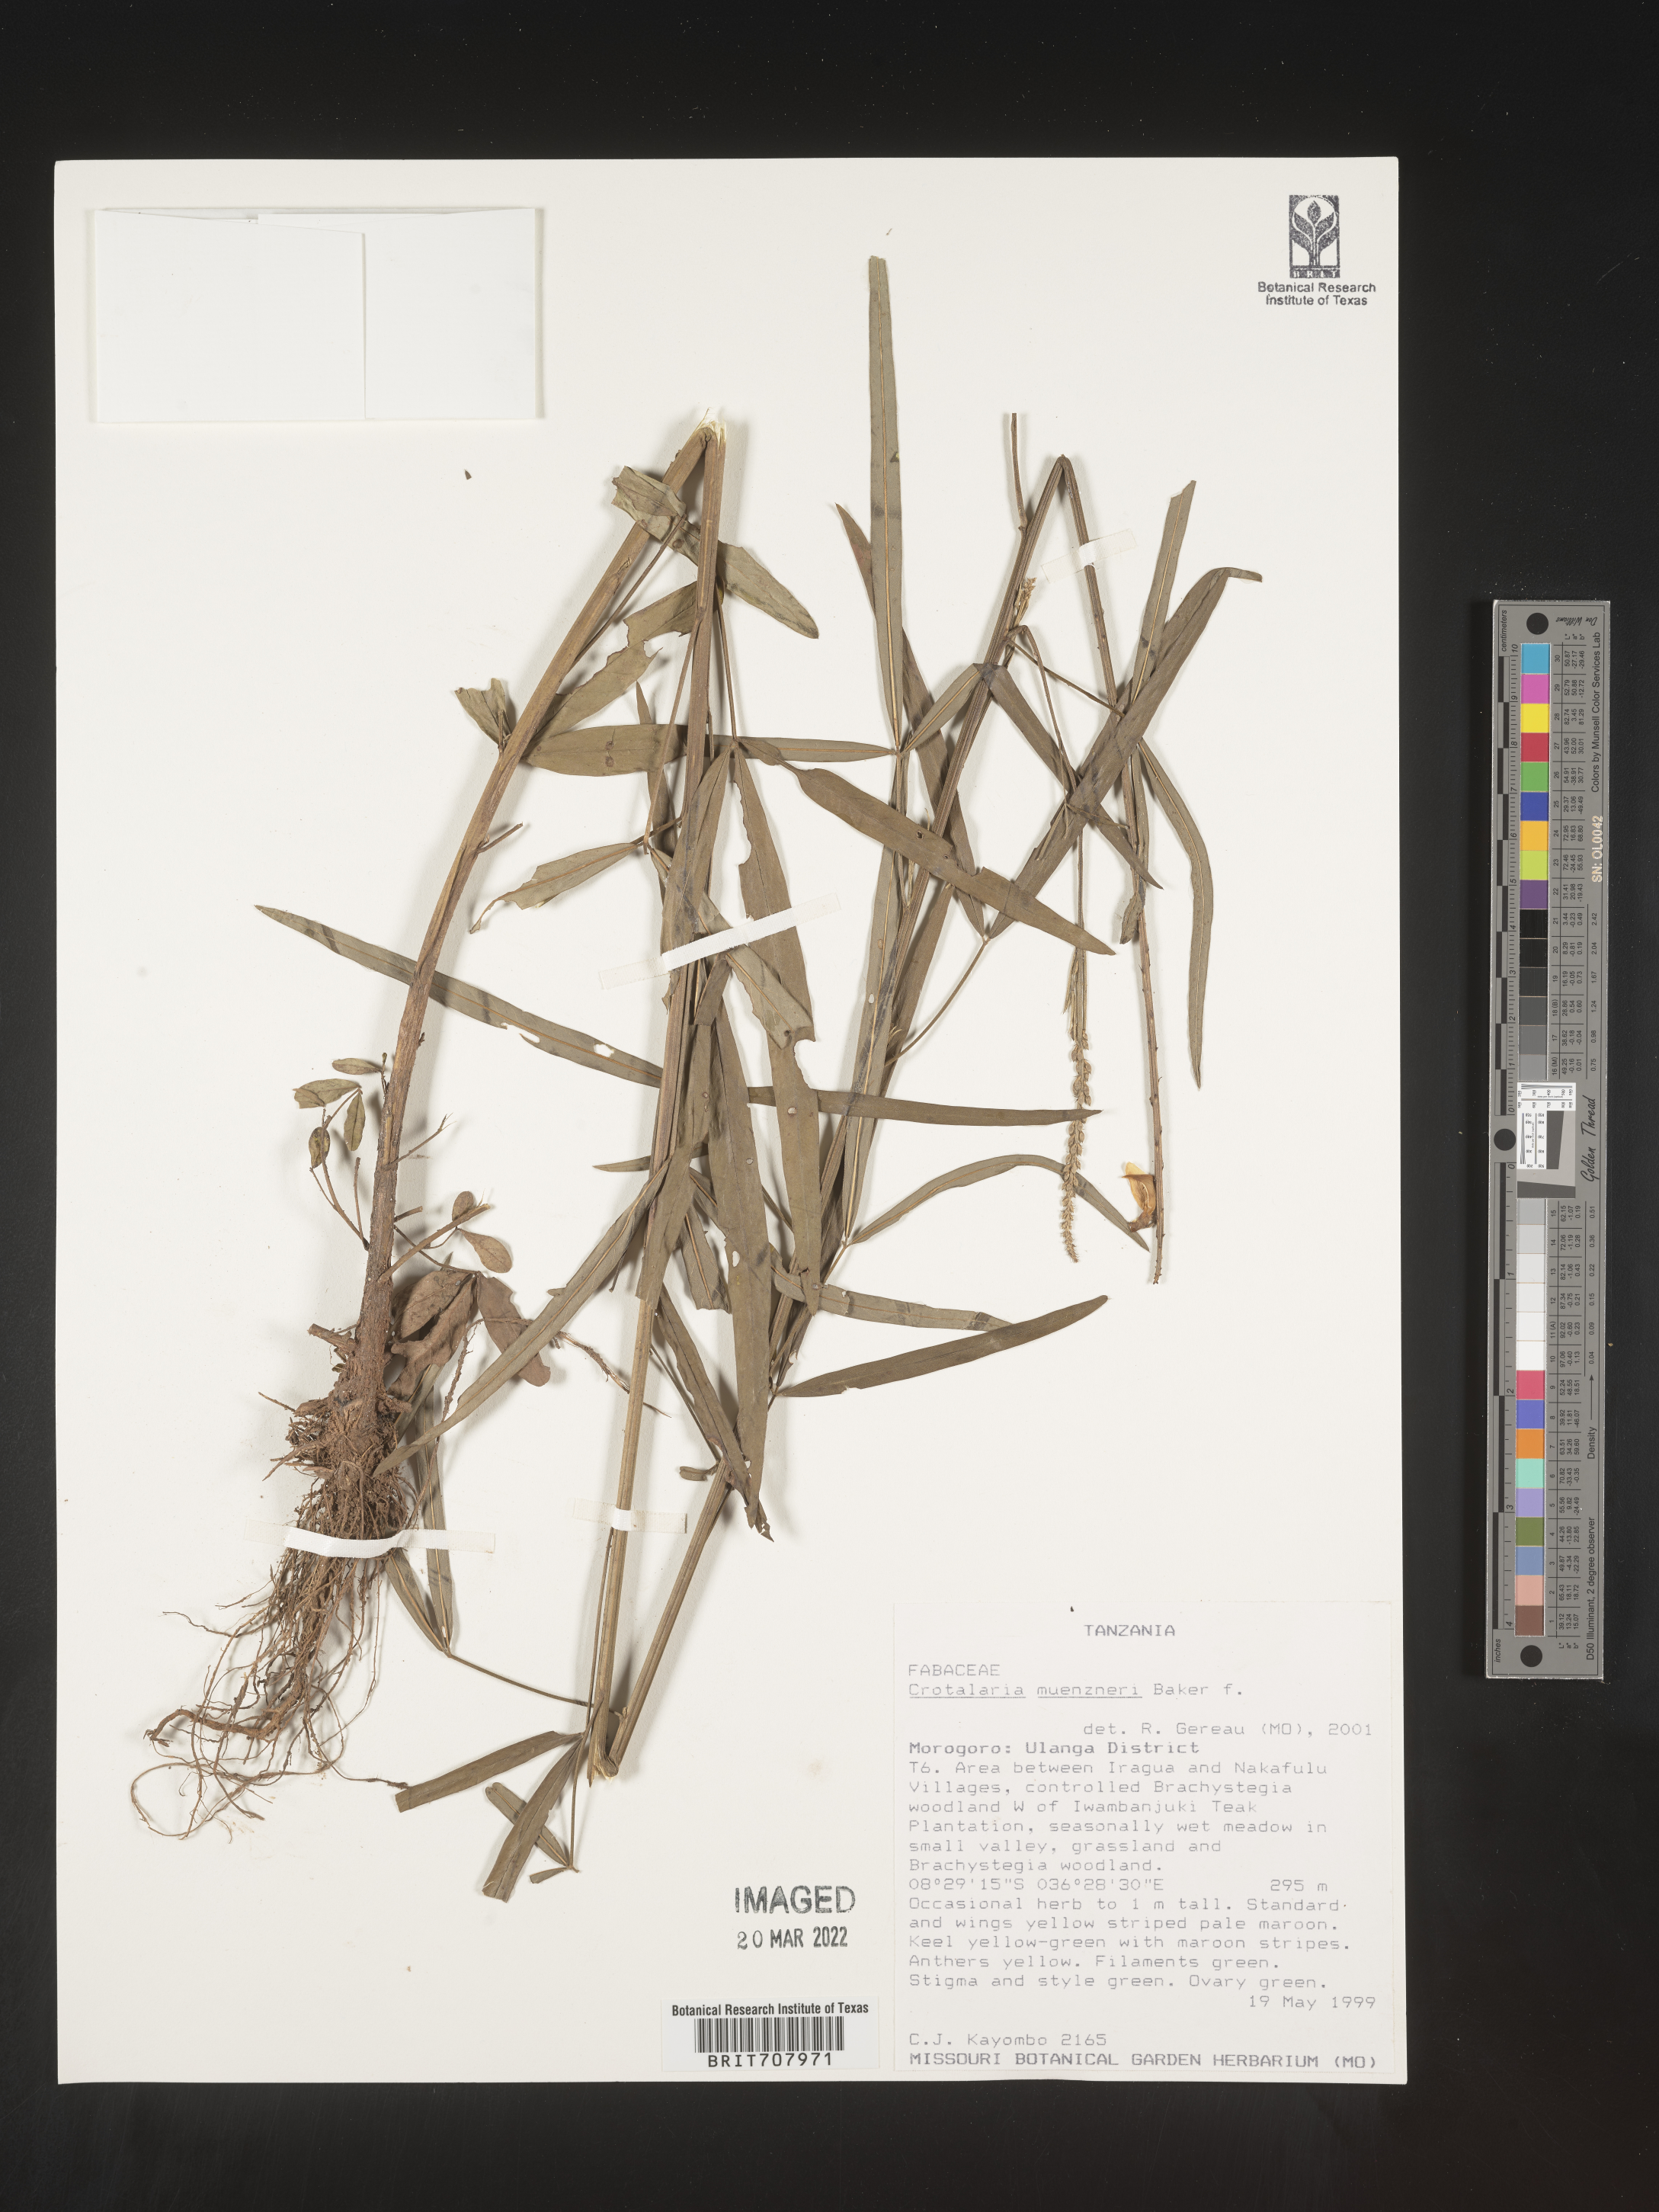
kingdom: Plantae
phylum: Tracheophyta
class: Magnoliopsida
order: Fabales
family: Fabaceae
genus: Crotalaria
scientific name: Crotalaria
